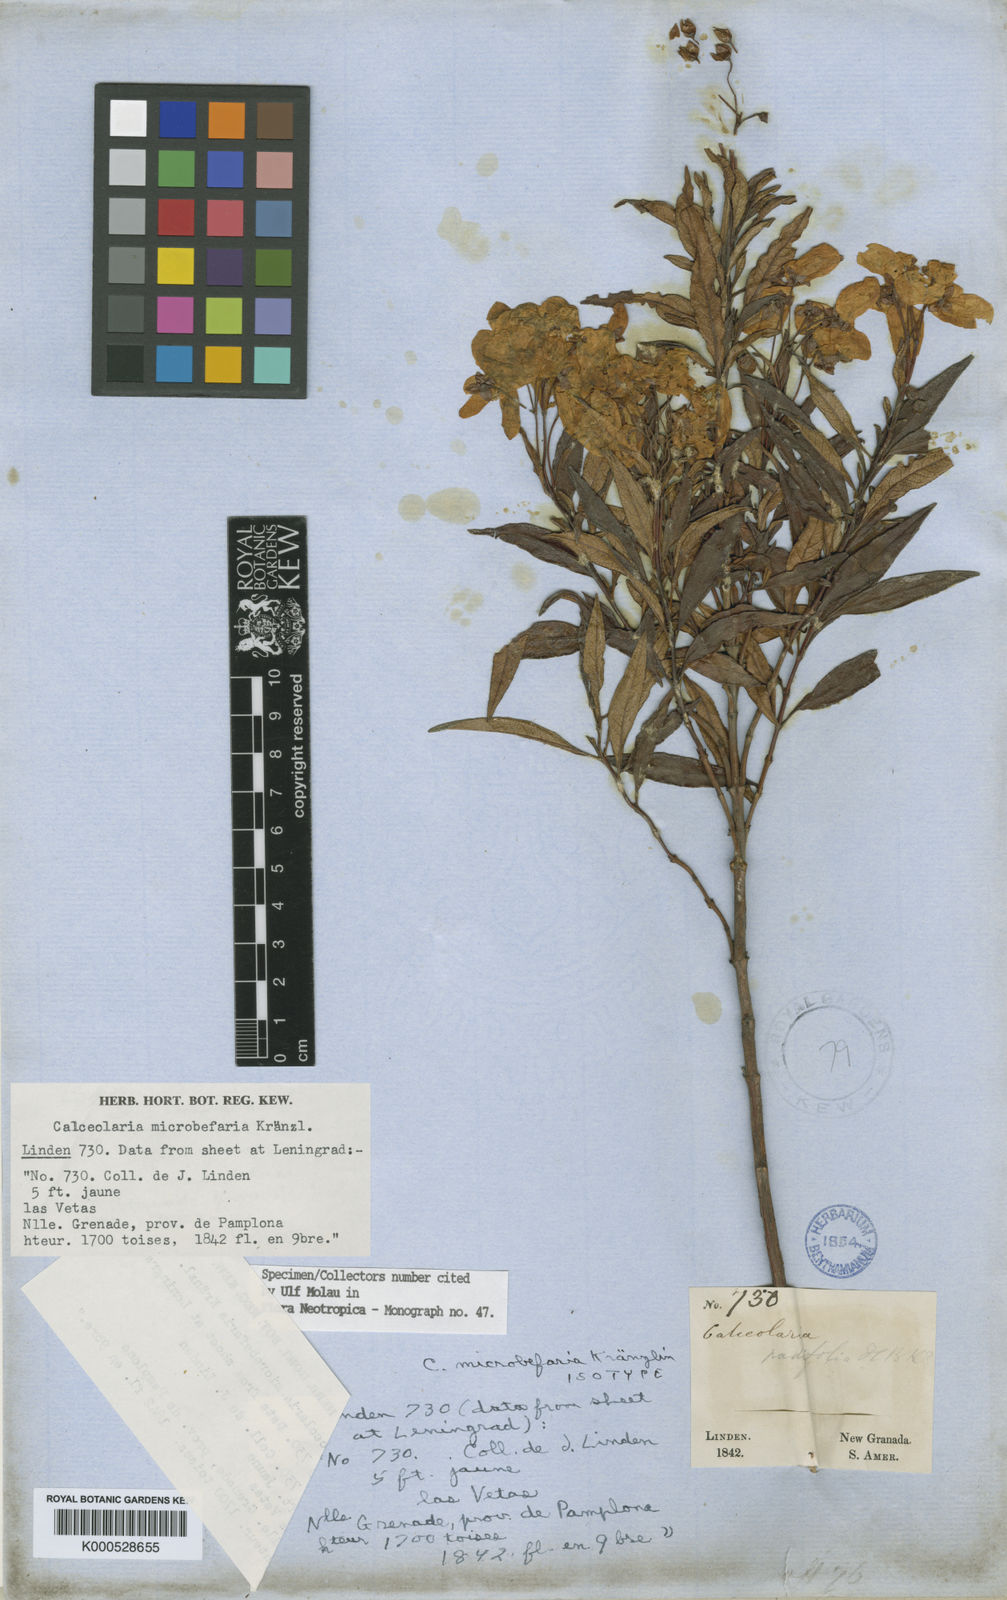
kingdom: Plantae
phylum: Tracheophyta
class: Magnoliopsida
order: Lamiales
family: Calceolariaceae
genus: Calceolaria
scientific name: Calceolaria microbefaria
